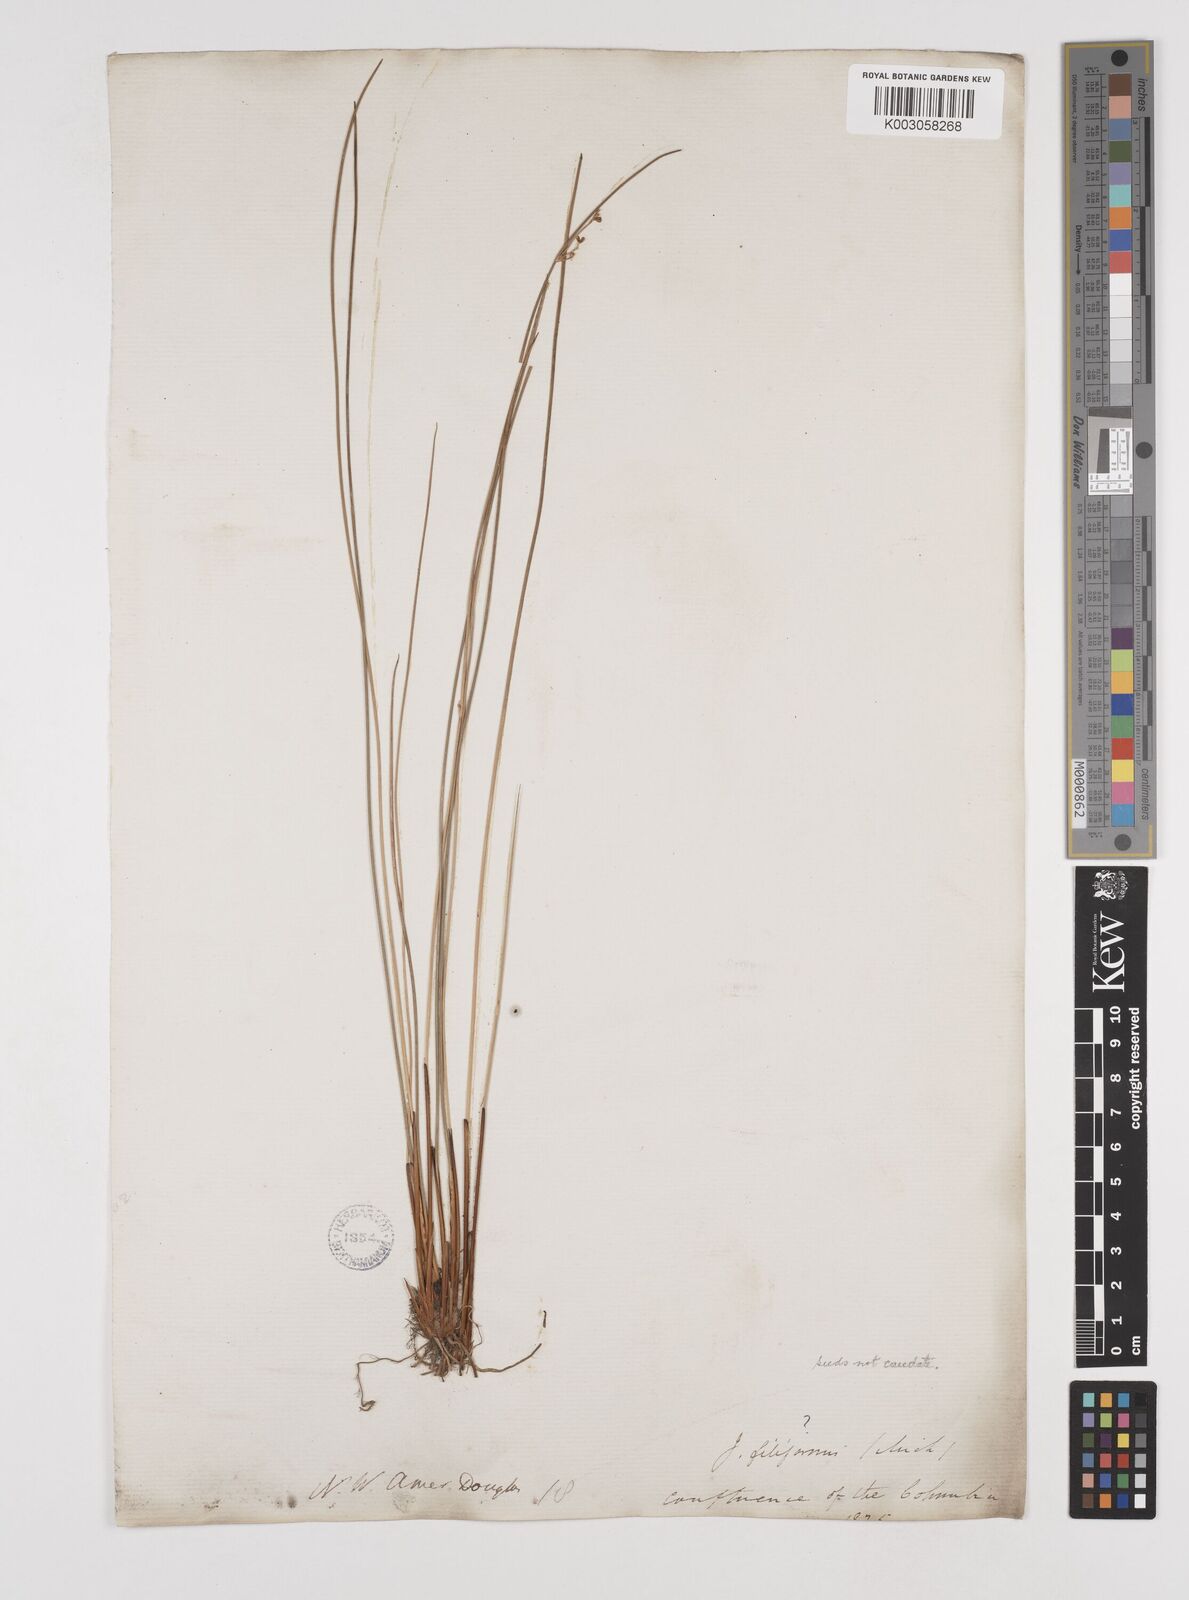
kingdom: Plantae
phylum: Tracheophyta
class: Liliopsida
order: Poales
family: Juncaceae
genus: Juncus
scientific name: Juncus
